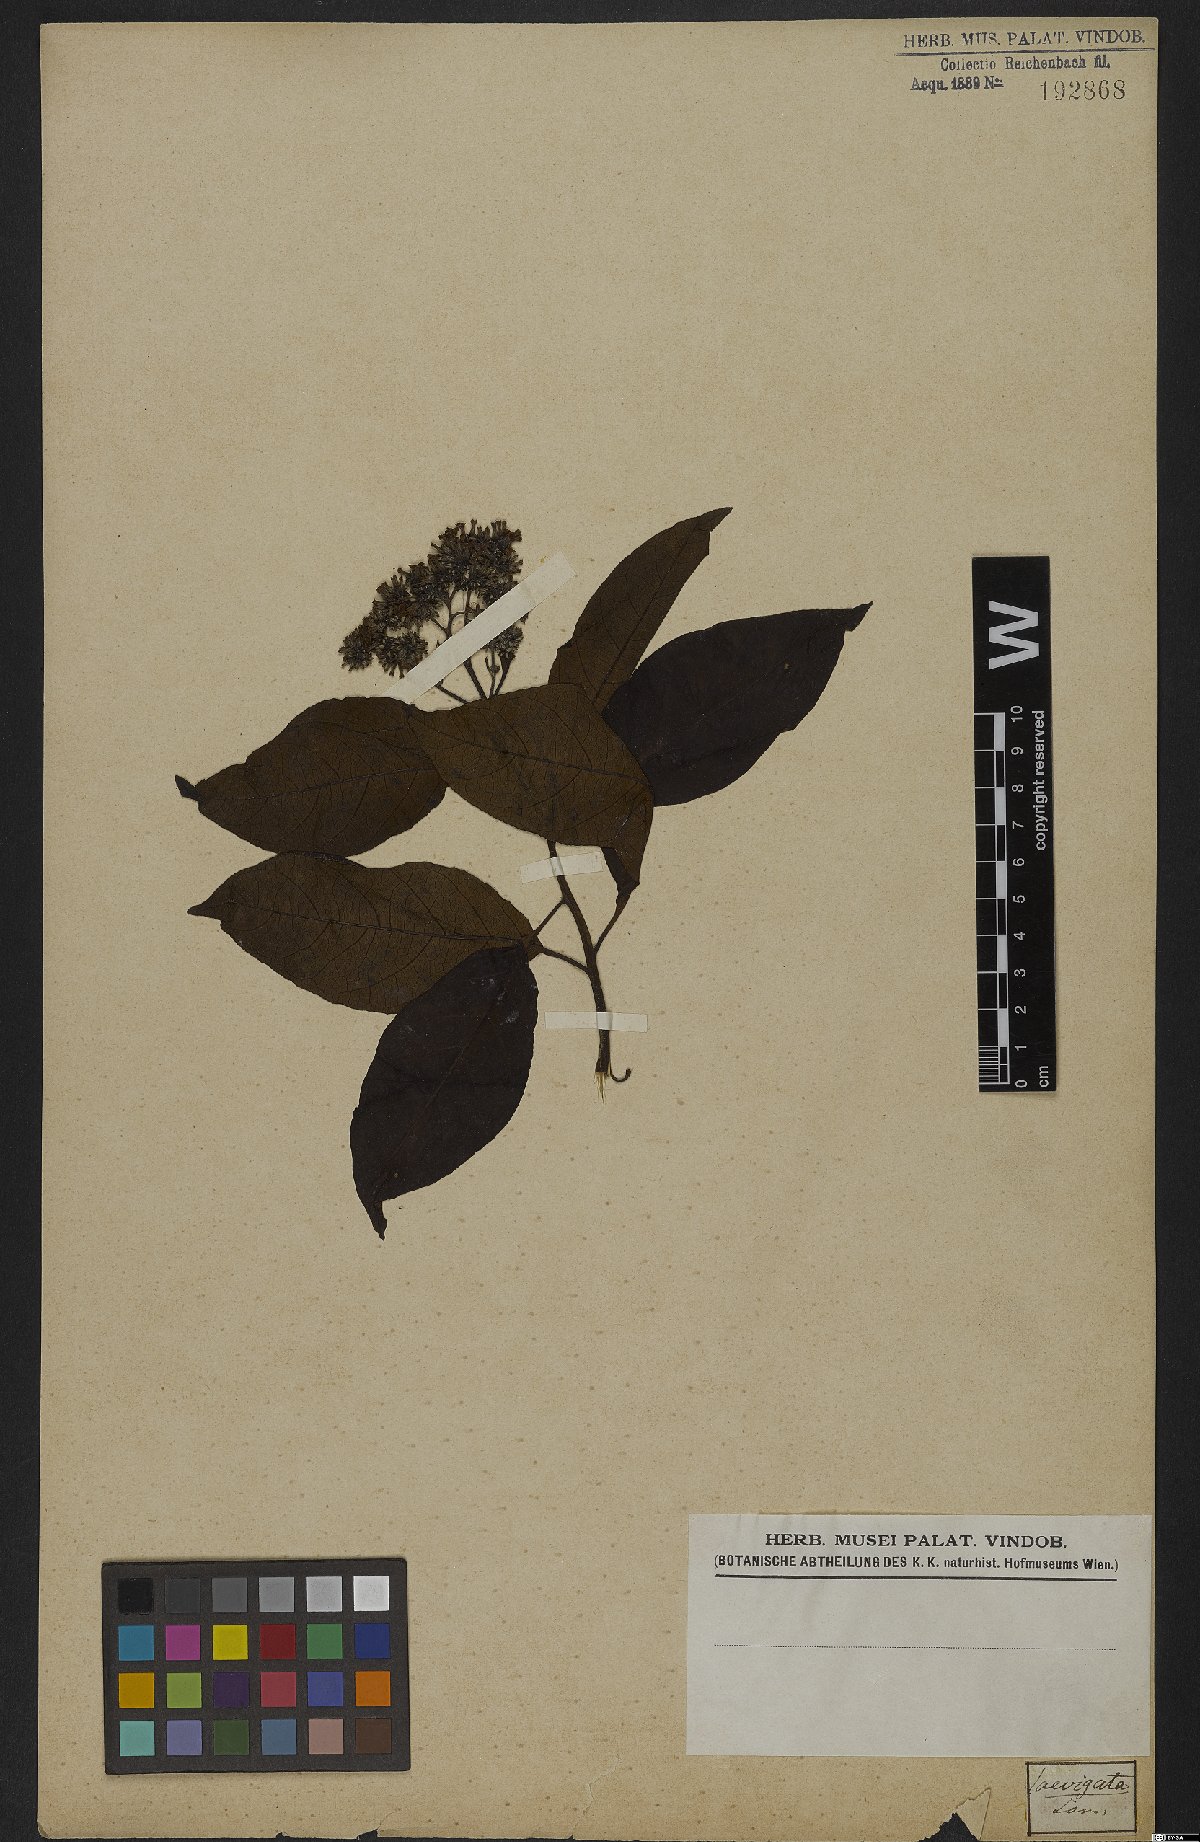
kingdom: Plantae
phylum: Tracheophyta
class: Magnoliopsida
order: Boraginales
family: Heliotropiaceae
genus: Heliotropium
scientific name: Heliotropium verdcourtii
